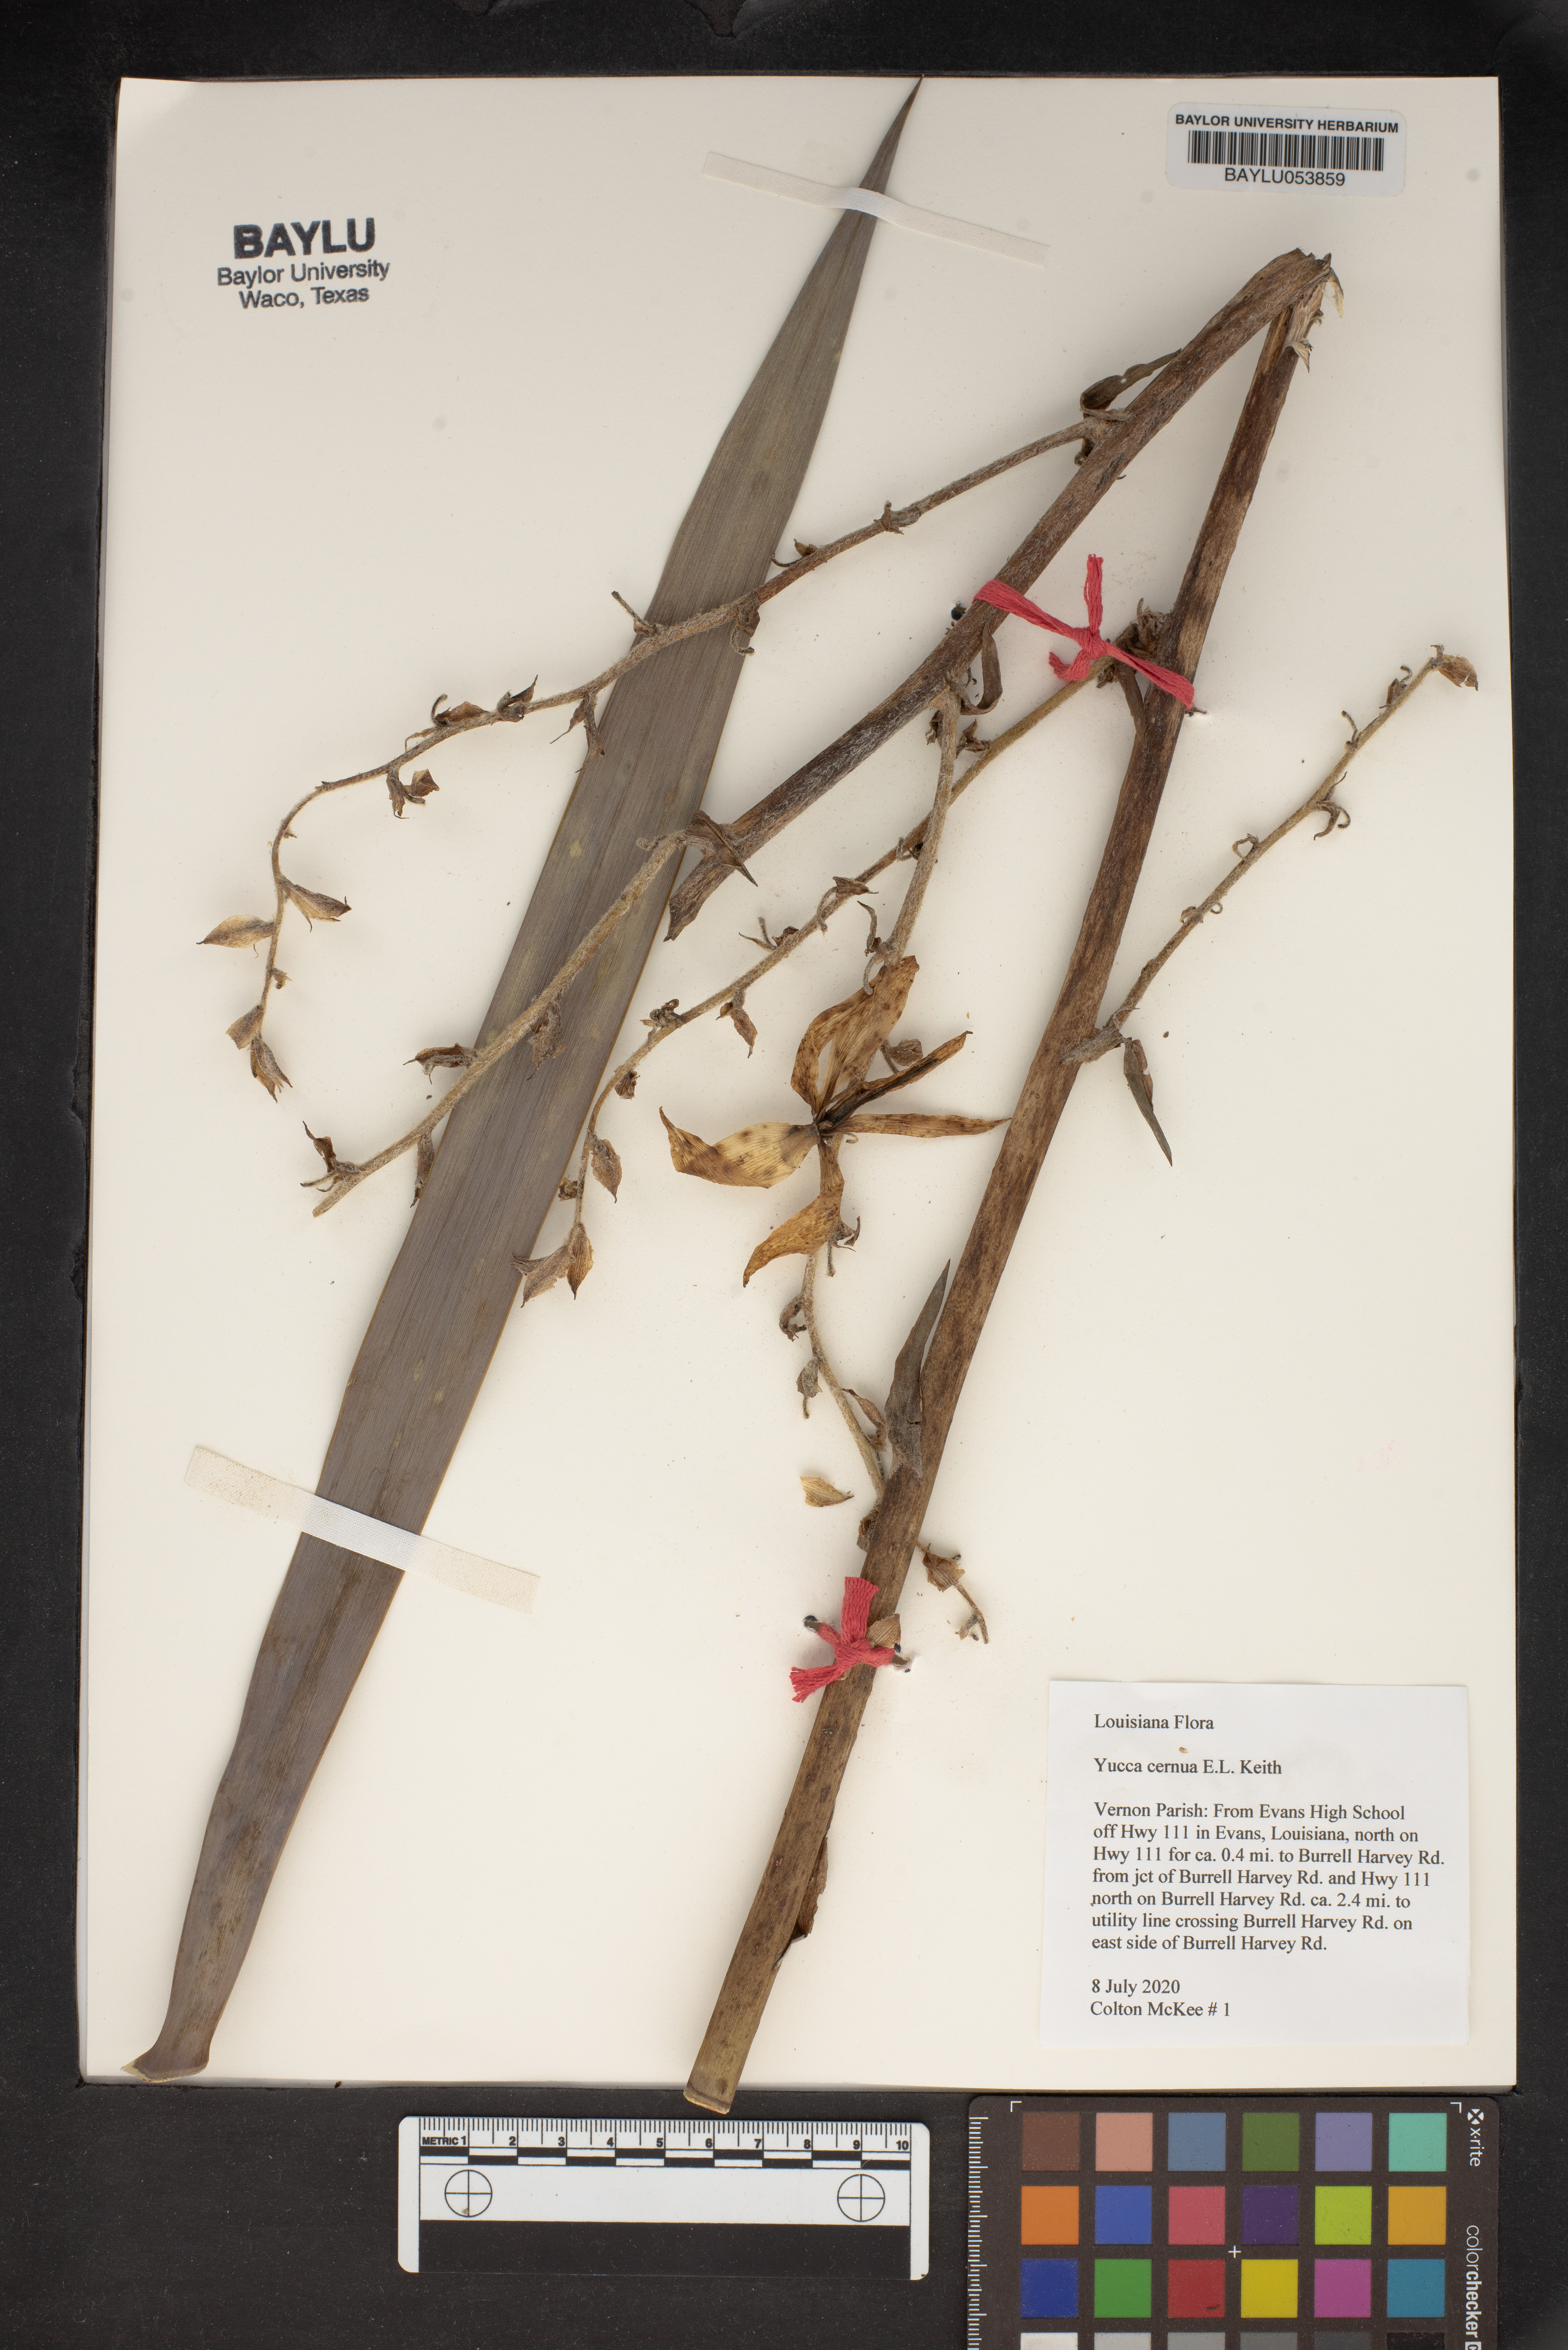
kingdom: Plantae
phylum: Tracheophyta
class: Liliopsida
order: Asparagales
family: Asparagaceae
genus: Yucca
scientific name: Yucca cernua
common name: Nodding yucca
